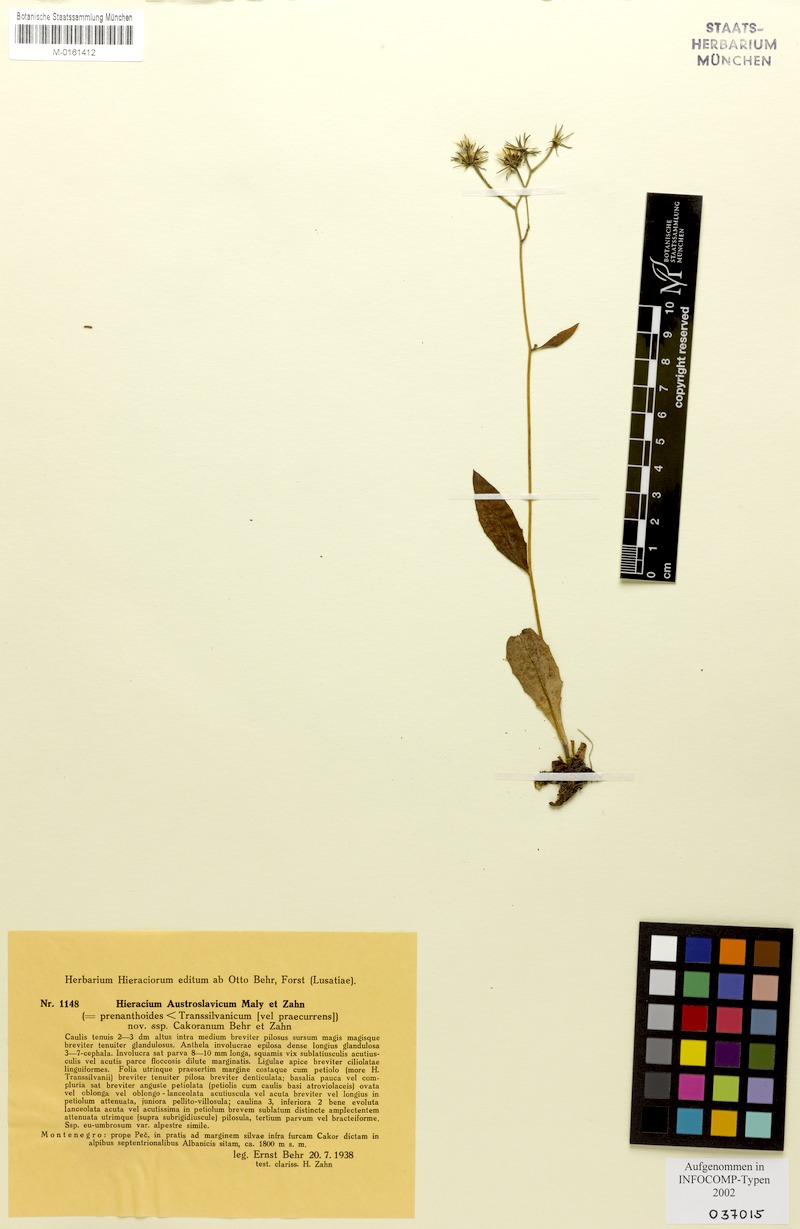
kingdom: Plantae
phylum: Tracheophyta
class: Magnoliopsida
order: Asterales
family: Asteraceae
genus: Hieracium
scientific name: Hieracium austroslavicum
